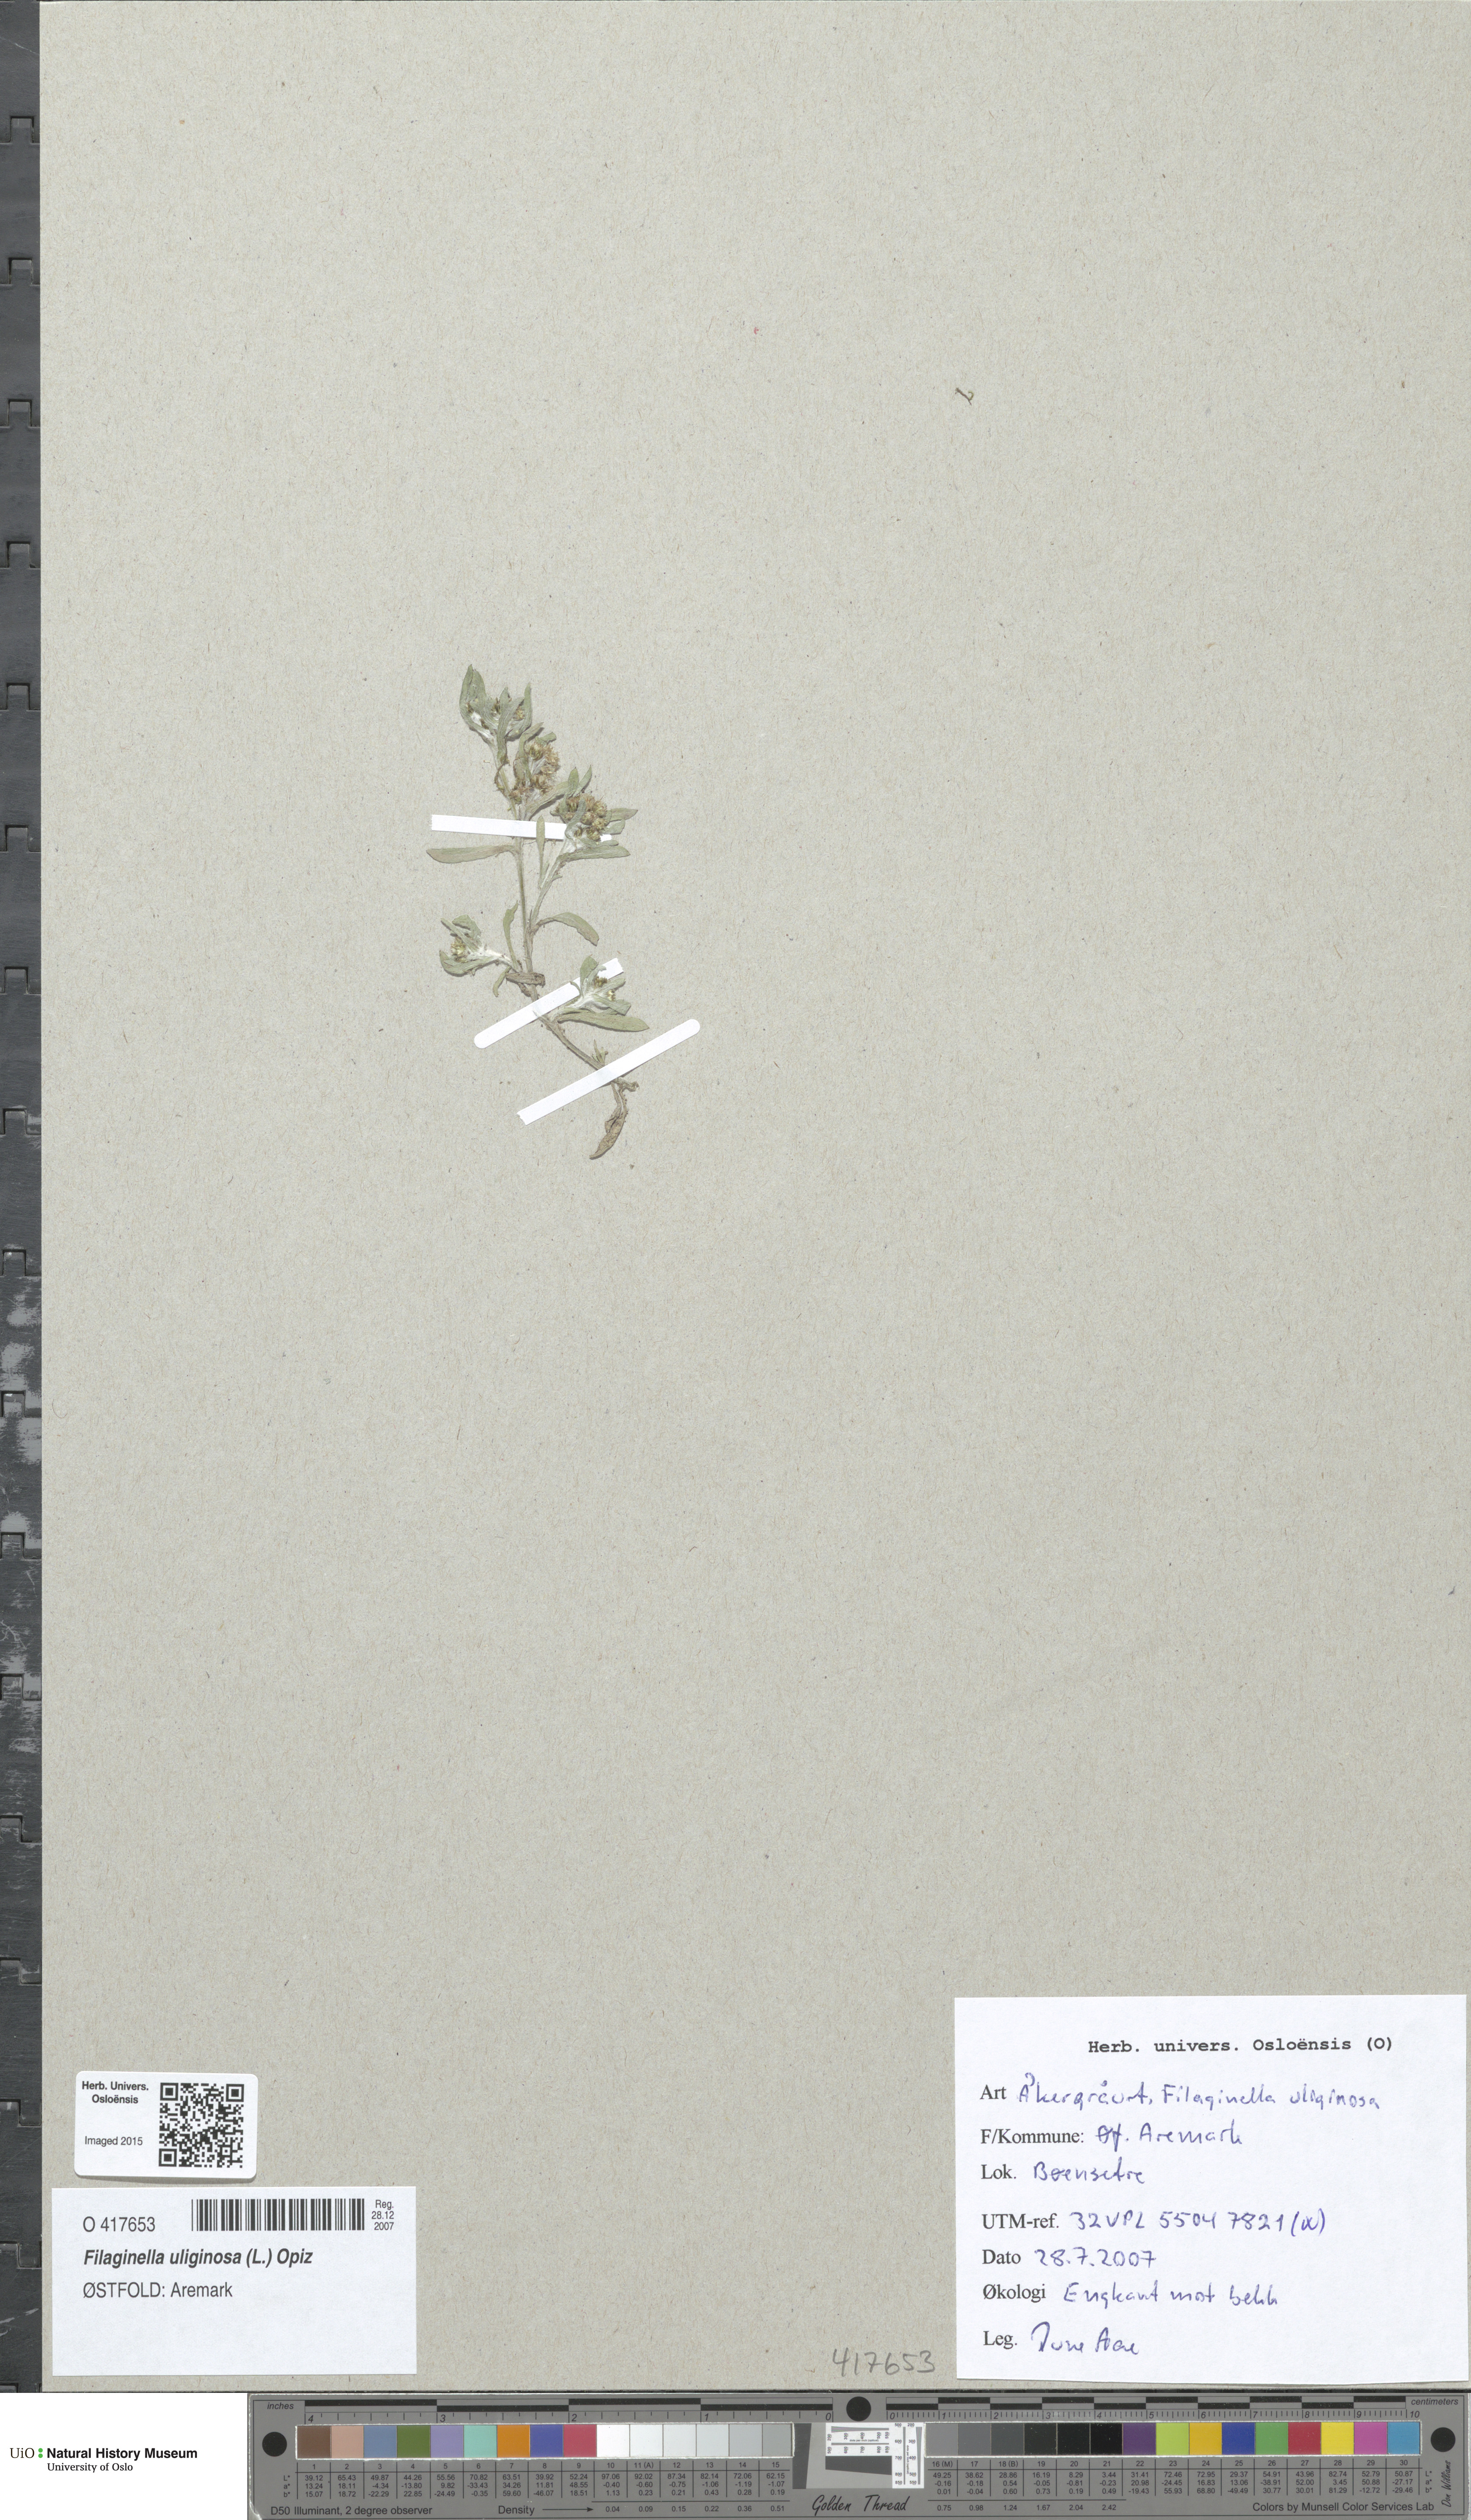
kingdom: Plantae
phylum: Tracheophyta
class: Magnoliopsida
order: Asterales
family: Asteraceae
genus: Gnaphalium
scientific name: Gnaphalium uliginosum
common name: Marsh cudweed
